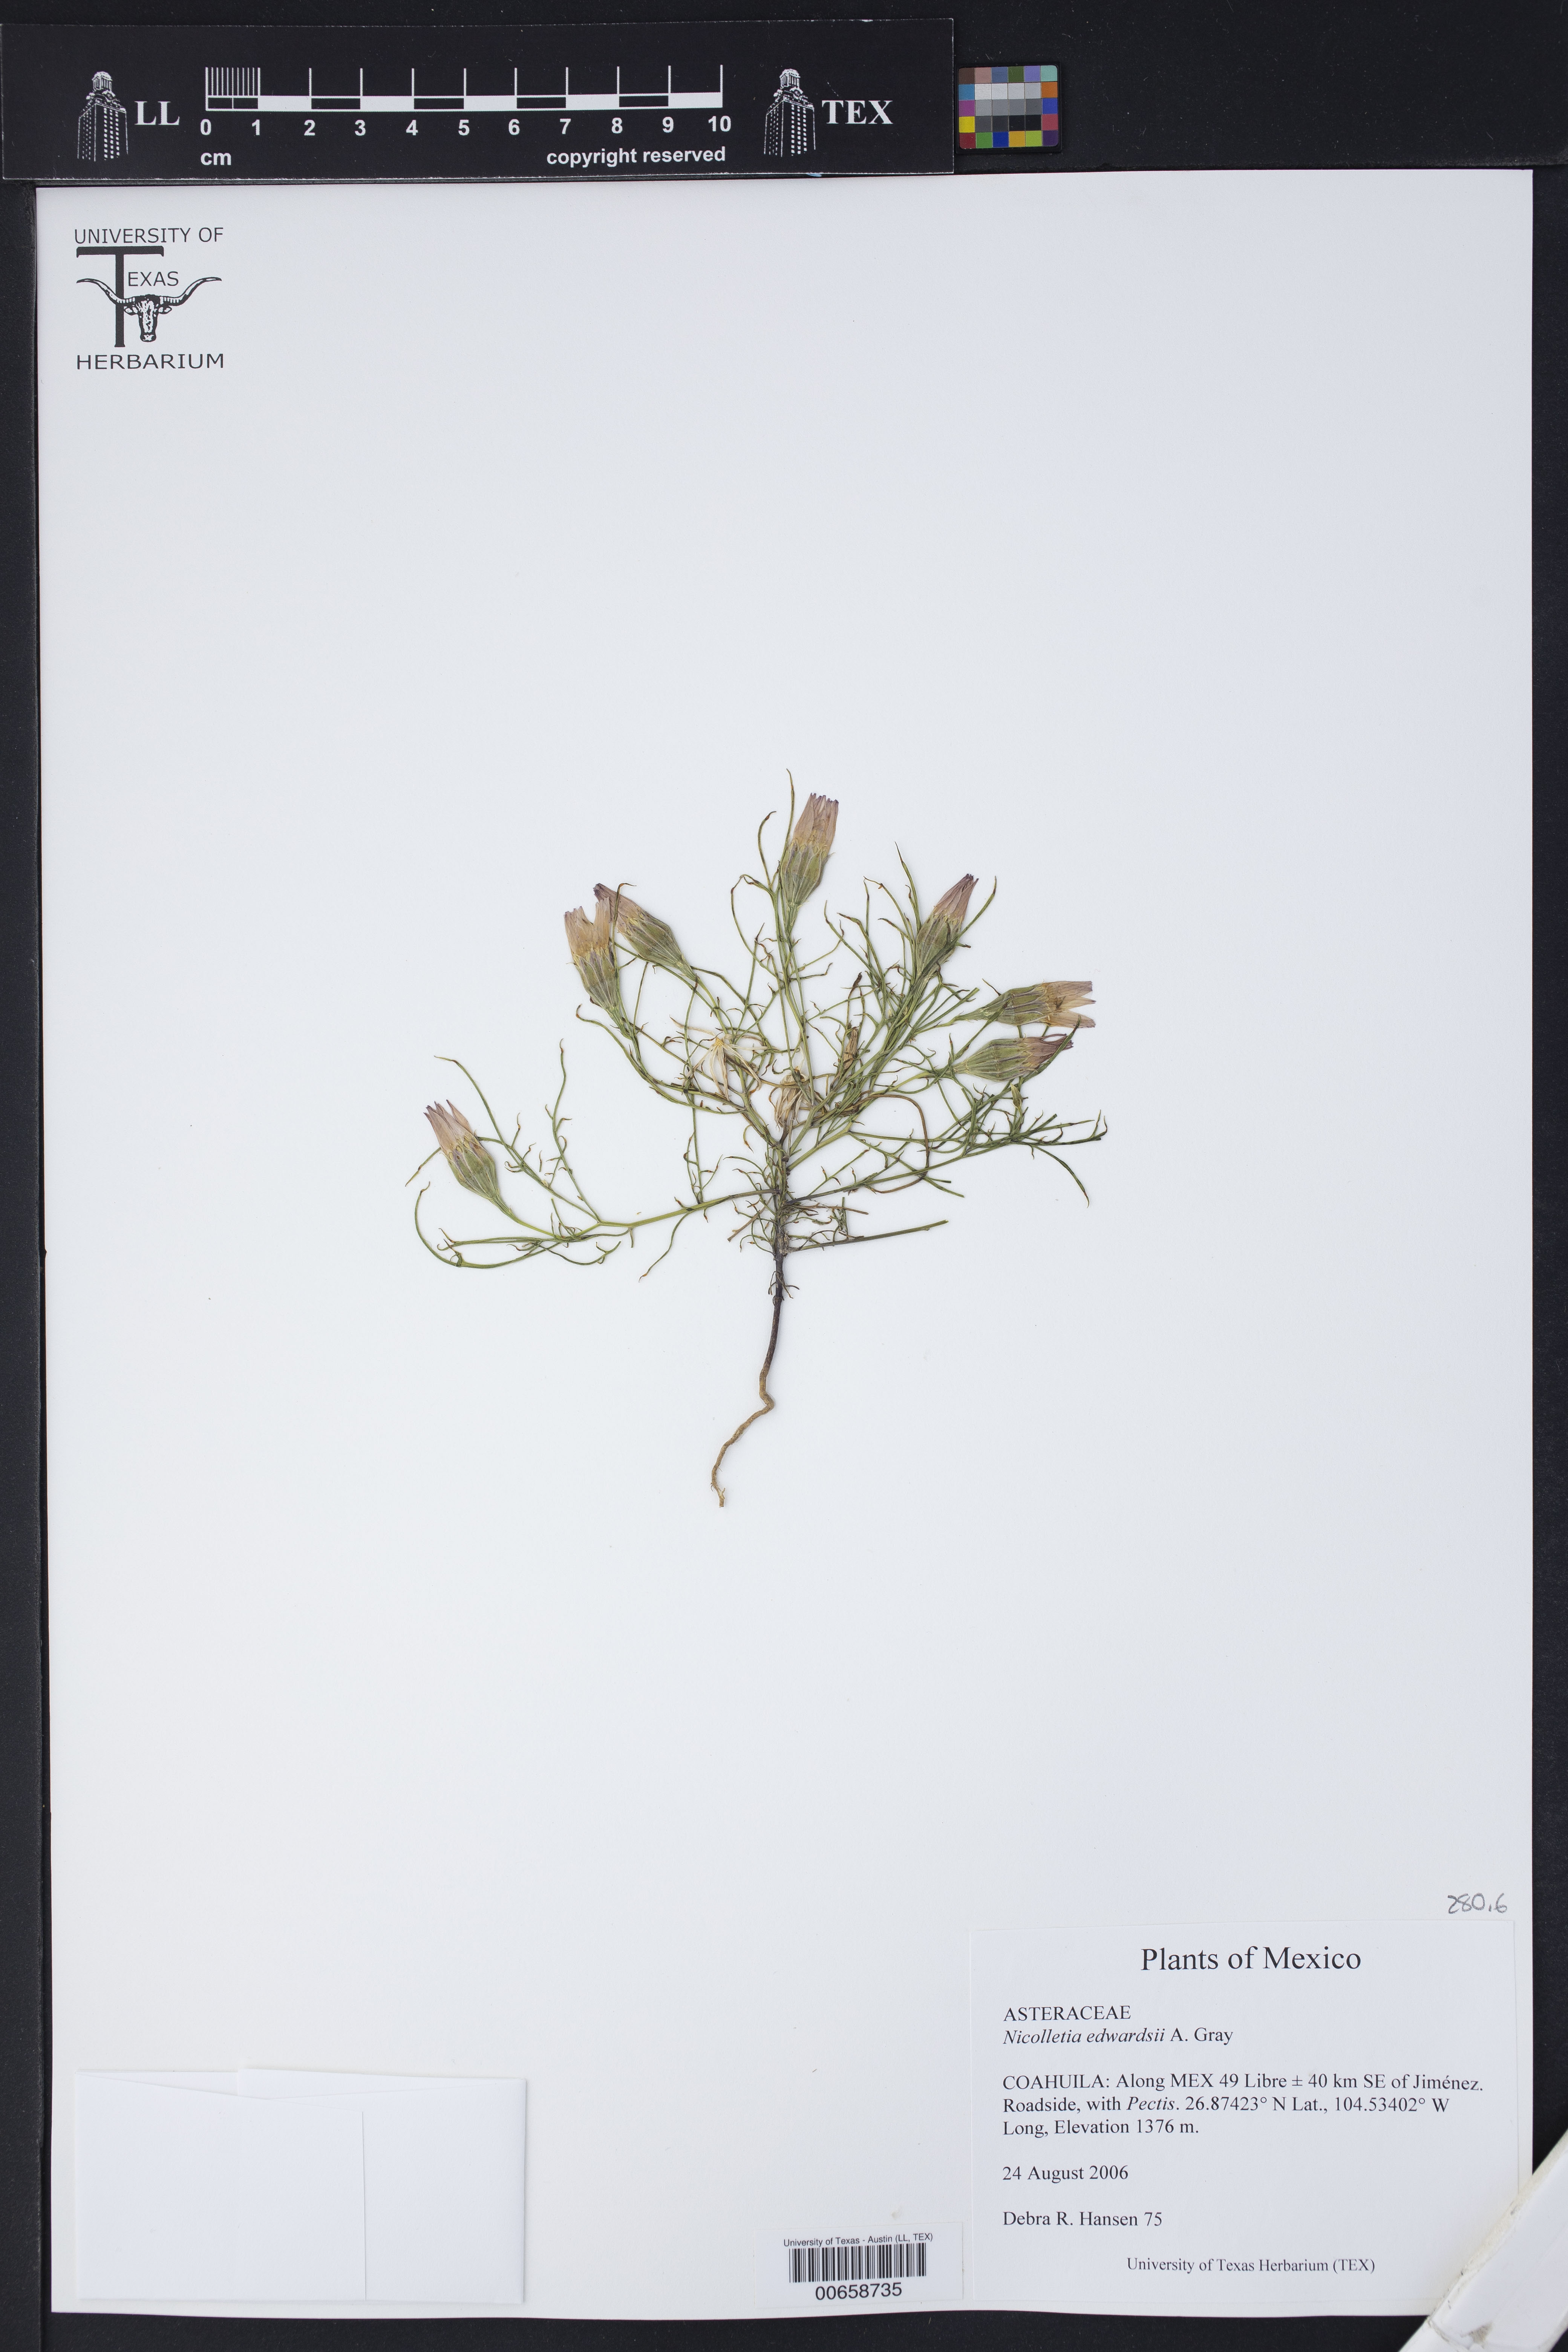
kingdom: Plantae
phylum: Tracheophyta
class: Magnoliopsida
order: Asterales
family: Asteraceae
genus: Nicolletia
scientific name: Nicolletia edwardsii
